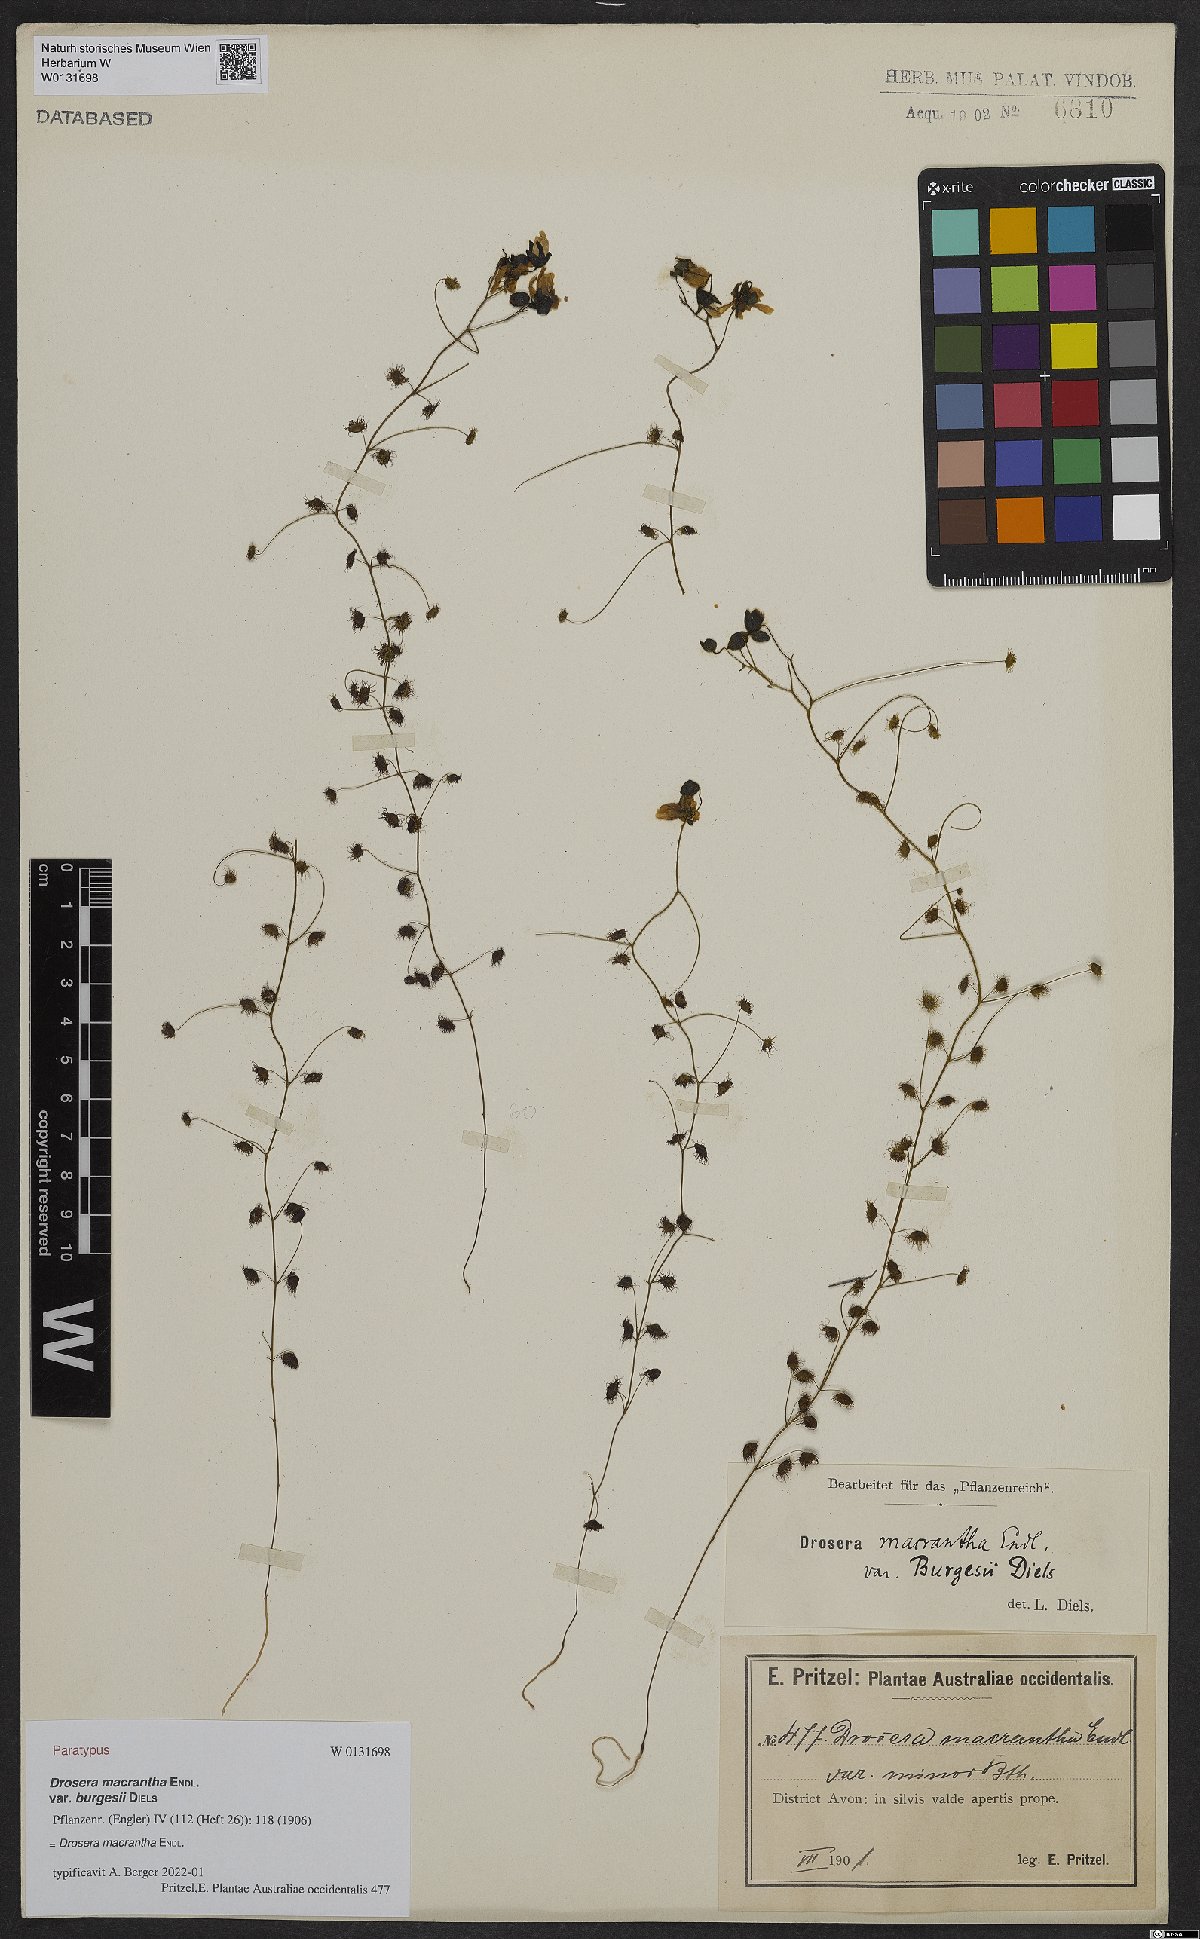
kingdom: Plantae
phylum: Tracheophyta
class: Magnoliopsida
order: Caryophyllales
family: Droseraceae
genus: Drosera
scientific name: Drosera macrantha
